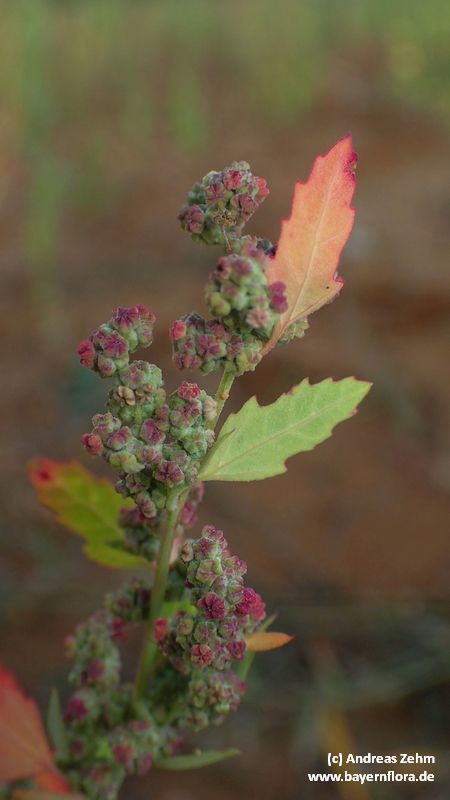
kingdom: Plantae
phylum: Tracheophyta
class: Magnoliopsida
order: Caryophyllales
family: Amaranthaceae
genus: Chenopodium
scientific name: Chenopodium album
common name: Fat-hen
